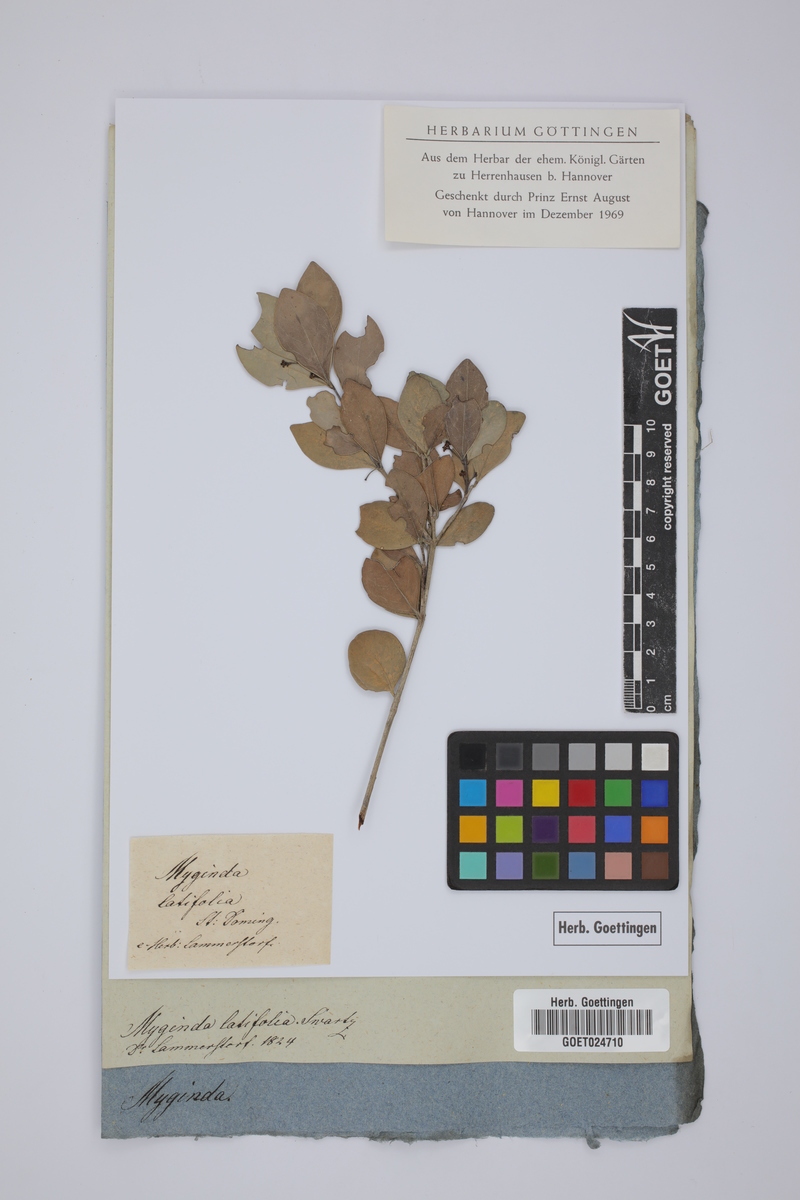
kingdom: Plantae
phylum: Tracheophyta
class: Magnoliopsida
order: Celastrales
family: Celastraceae
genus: Gyminda
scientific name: Gyminda latifolia
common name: False boxwood
